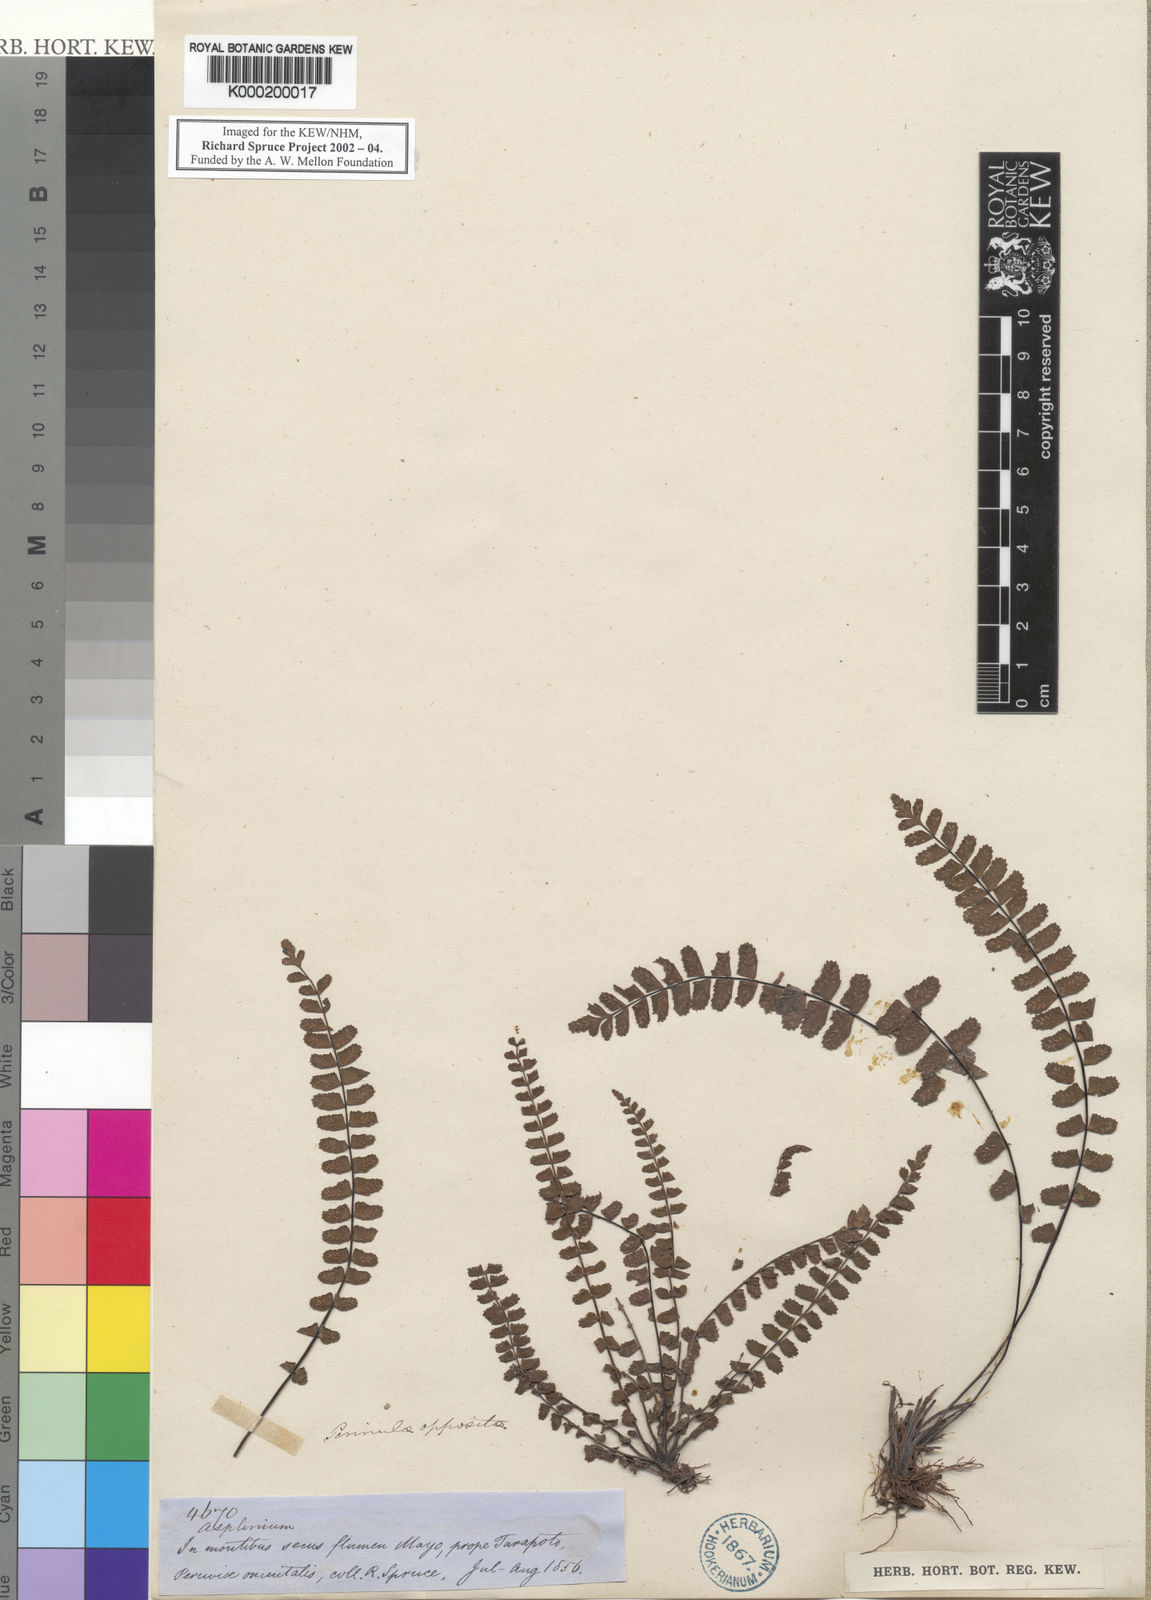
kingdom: Plantae
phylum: Tracheophyta
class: Polypodiopsida
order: Polypodiales
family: Aspleniaceae
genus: Asplenium
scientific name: Asplenium
